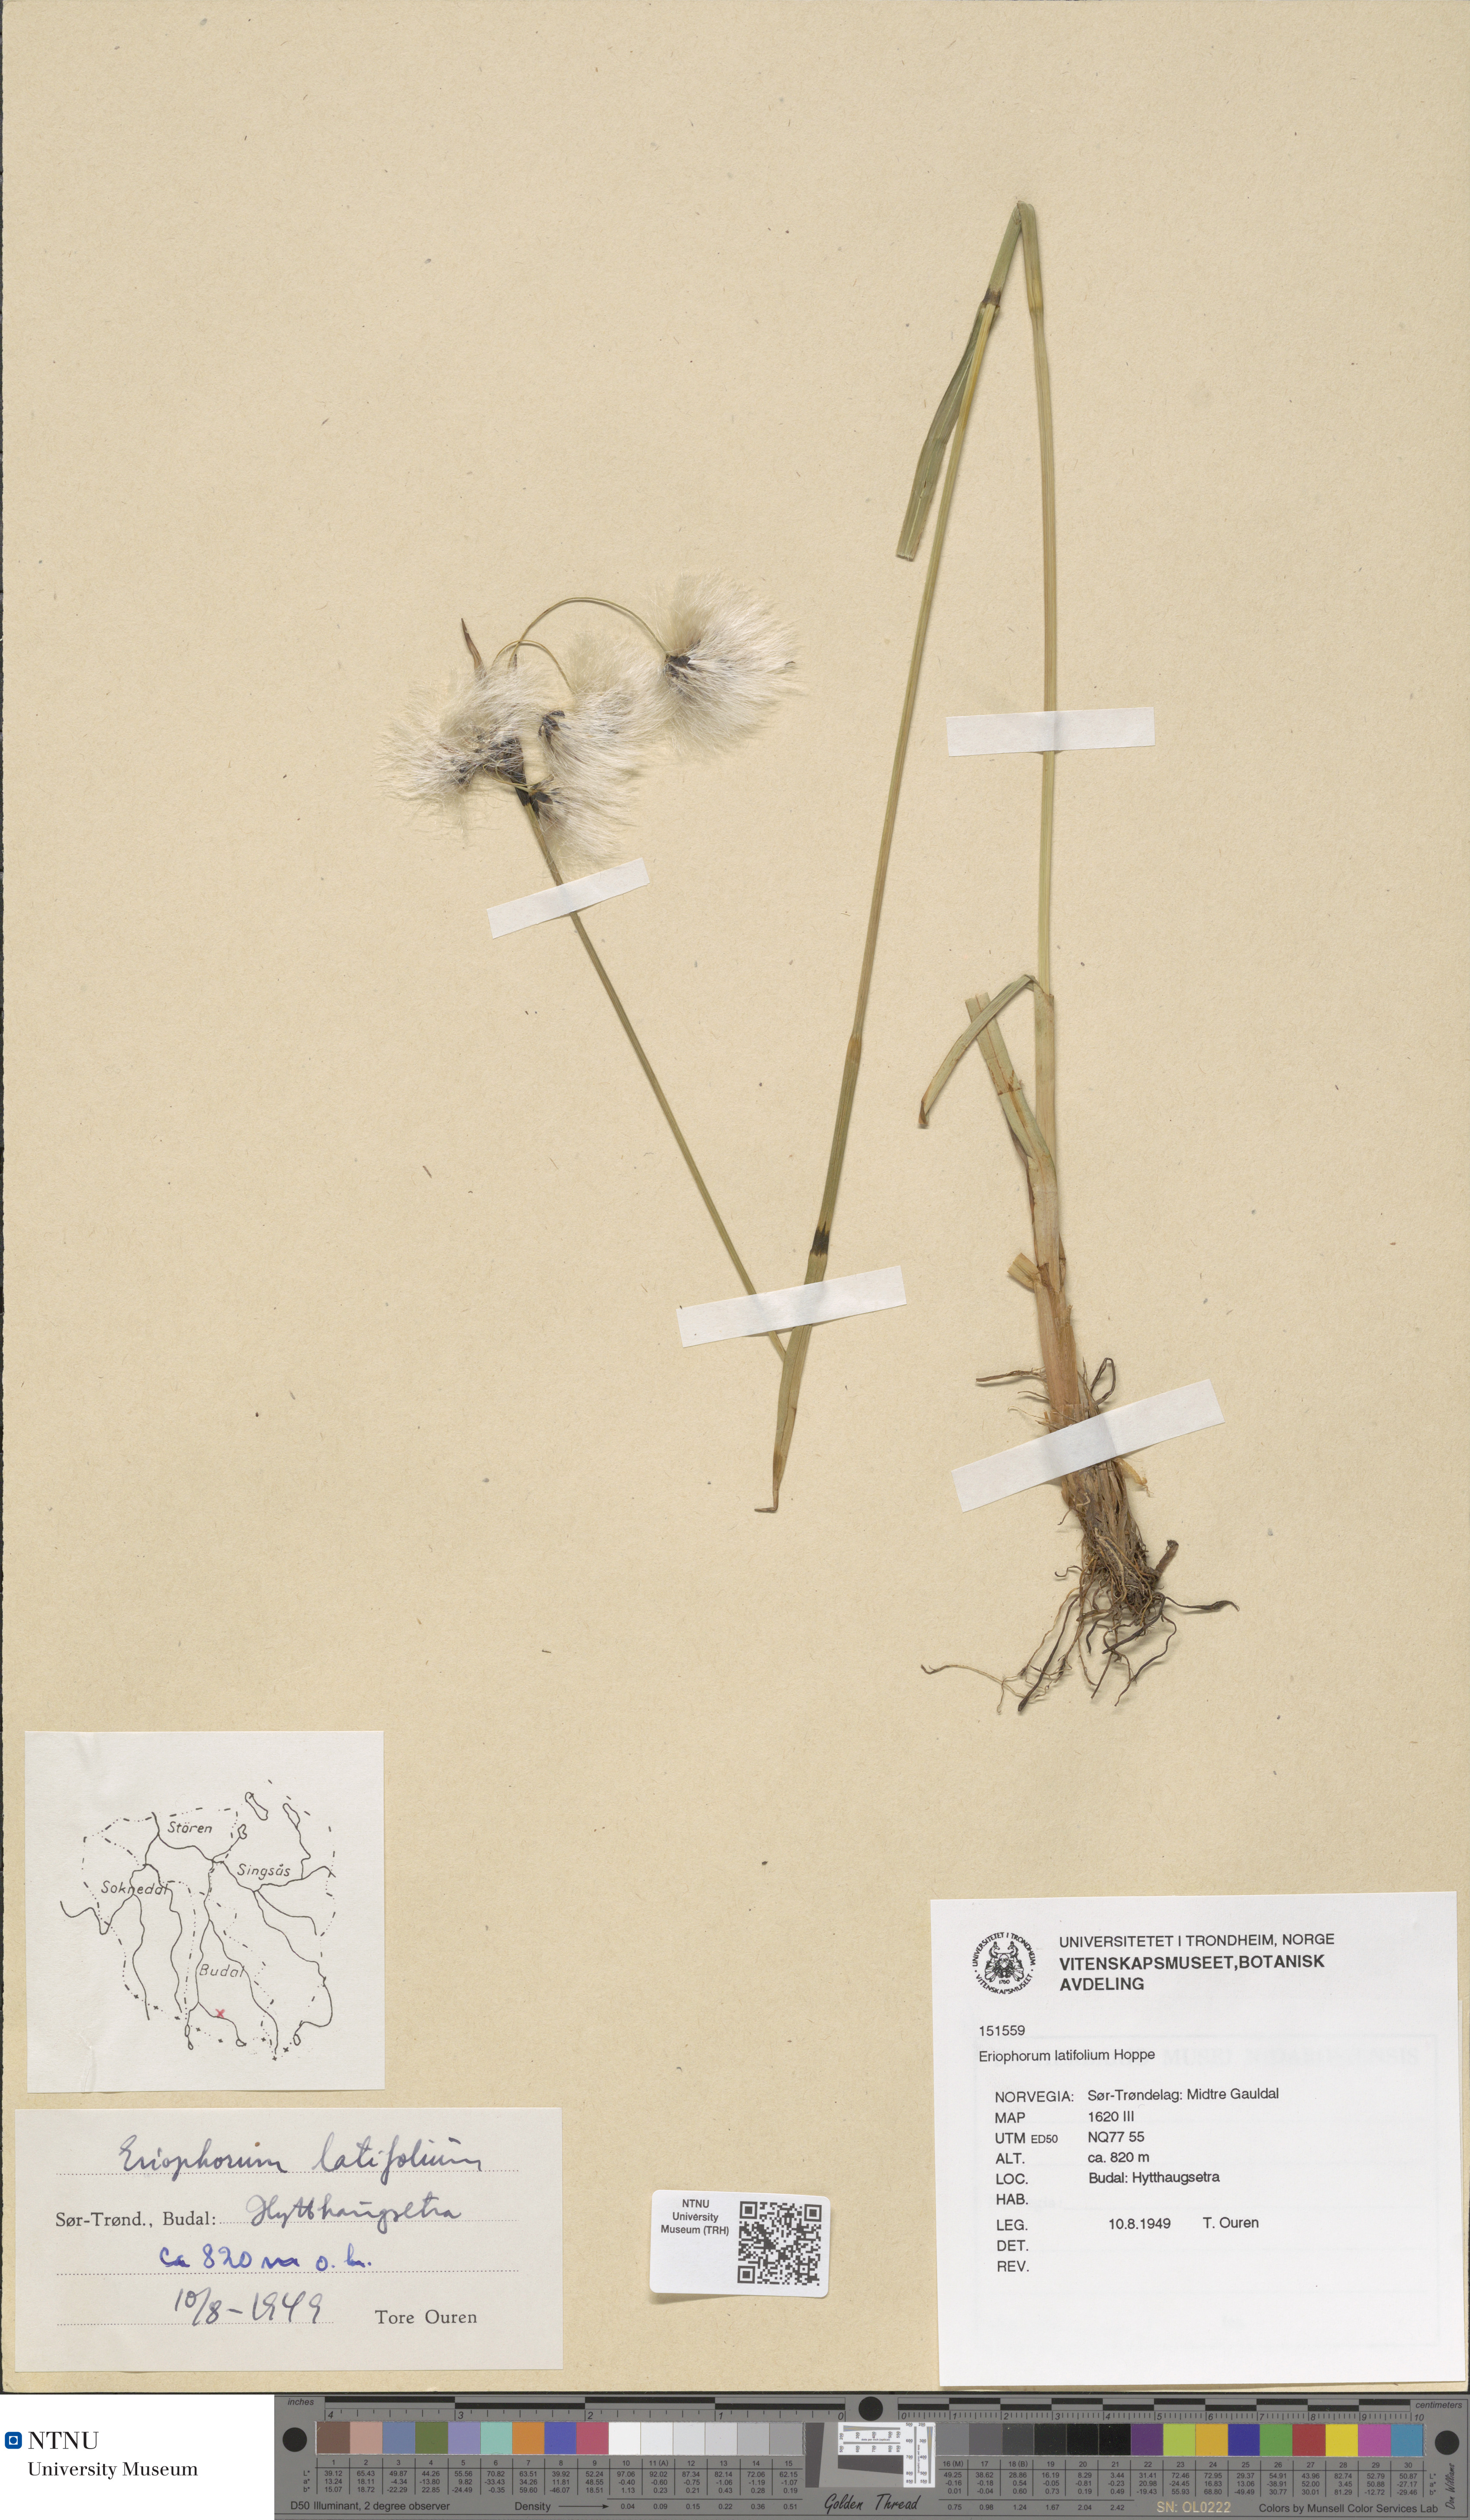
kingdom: Plantae
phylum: Tracheophyta
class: Liliopsida
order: Poales
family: Cyperaceae
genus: Eriophorum
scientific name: Eriophorum latifolium
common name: Broad-leaved cottongrass
